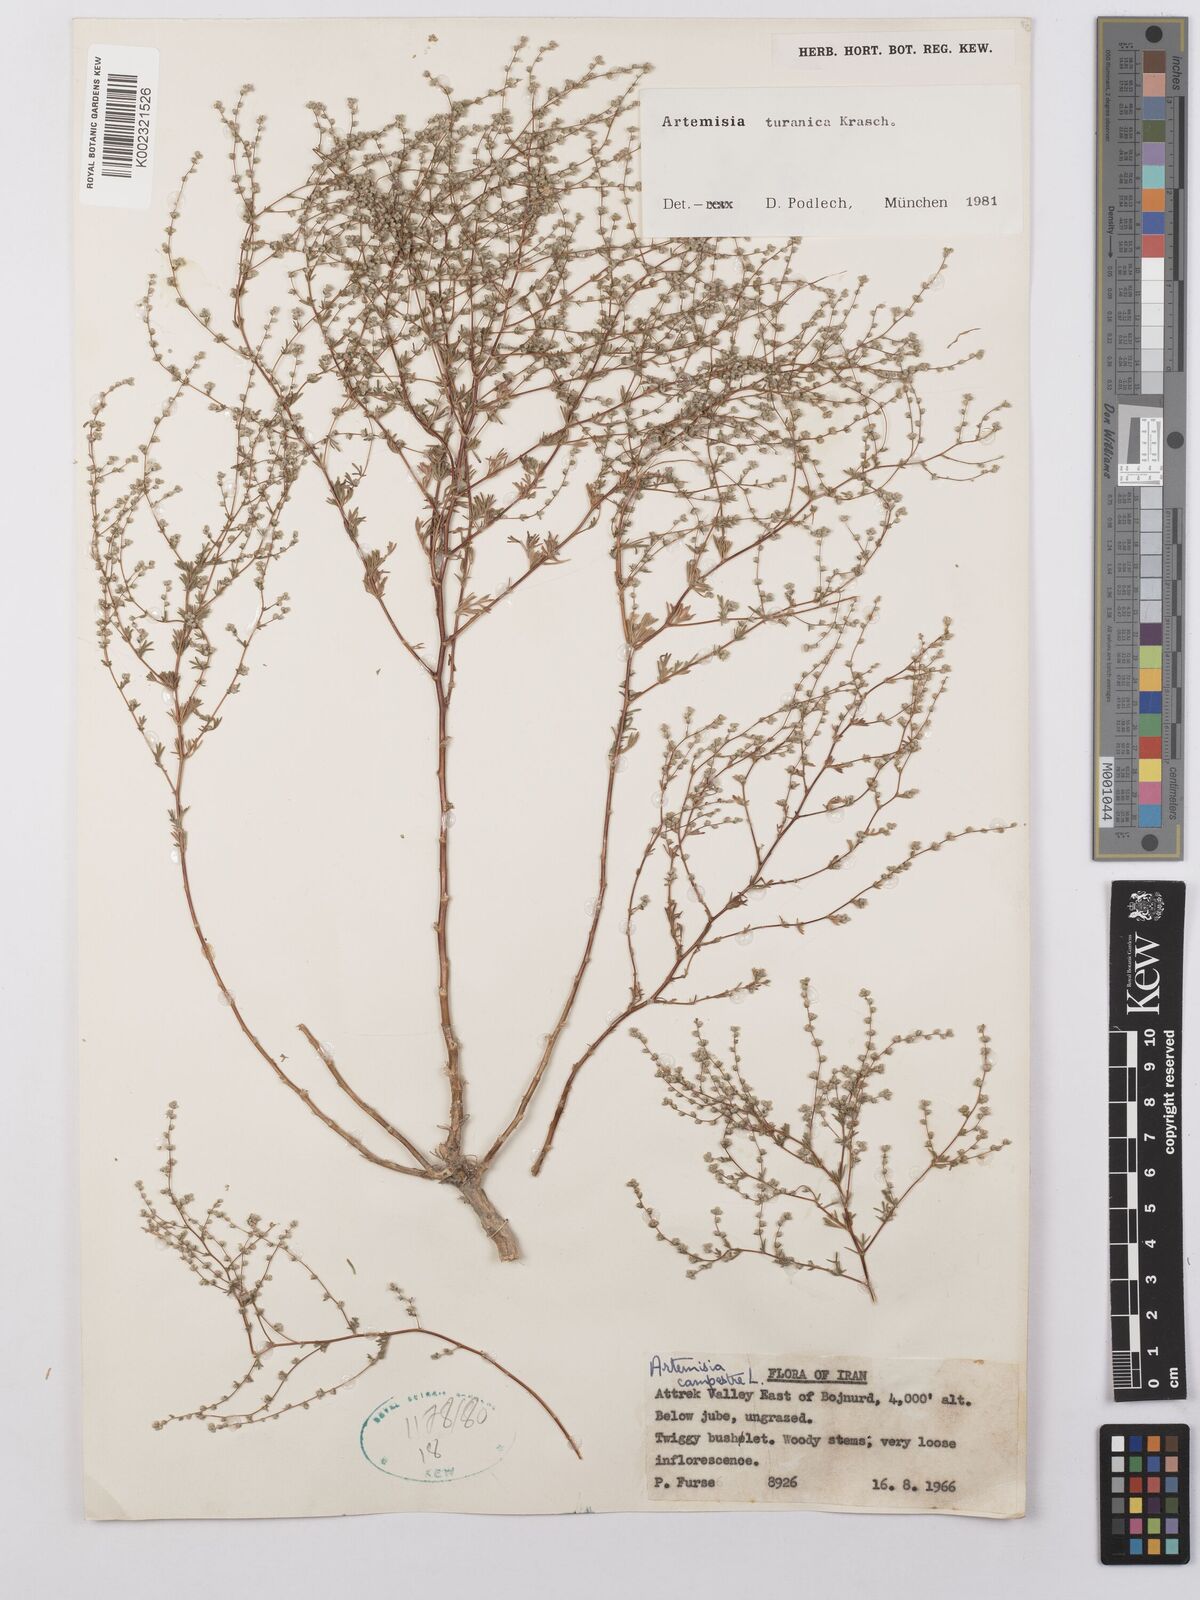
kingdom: Plantae
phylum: Tracheophyta
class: Magnoliopsida
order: Asterales
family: Asteraceae
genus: Artemisia
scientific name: Artemisia turanica
